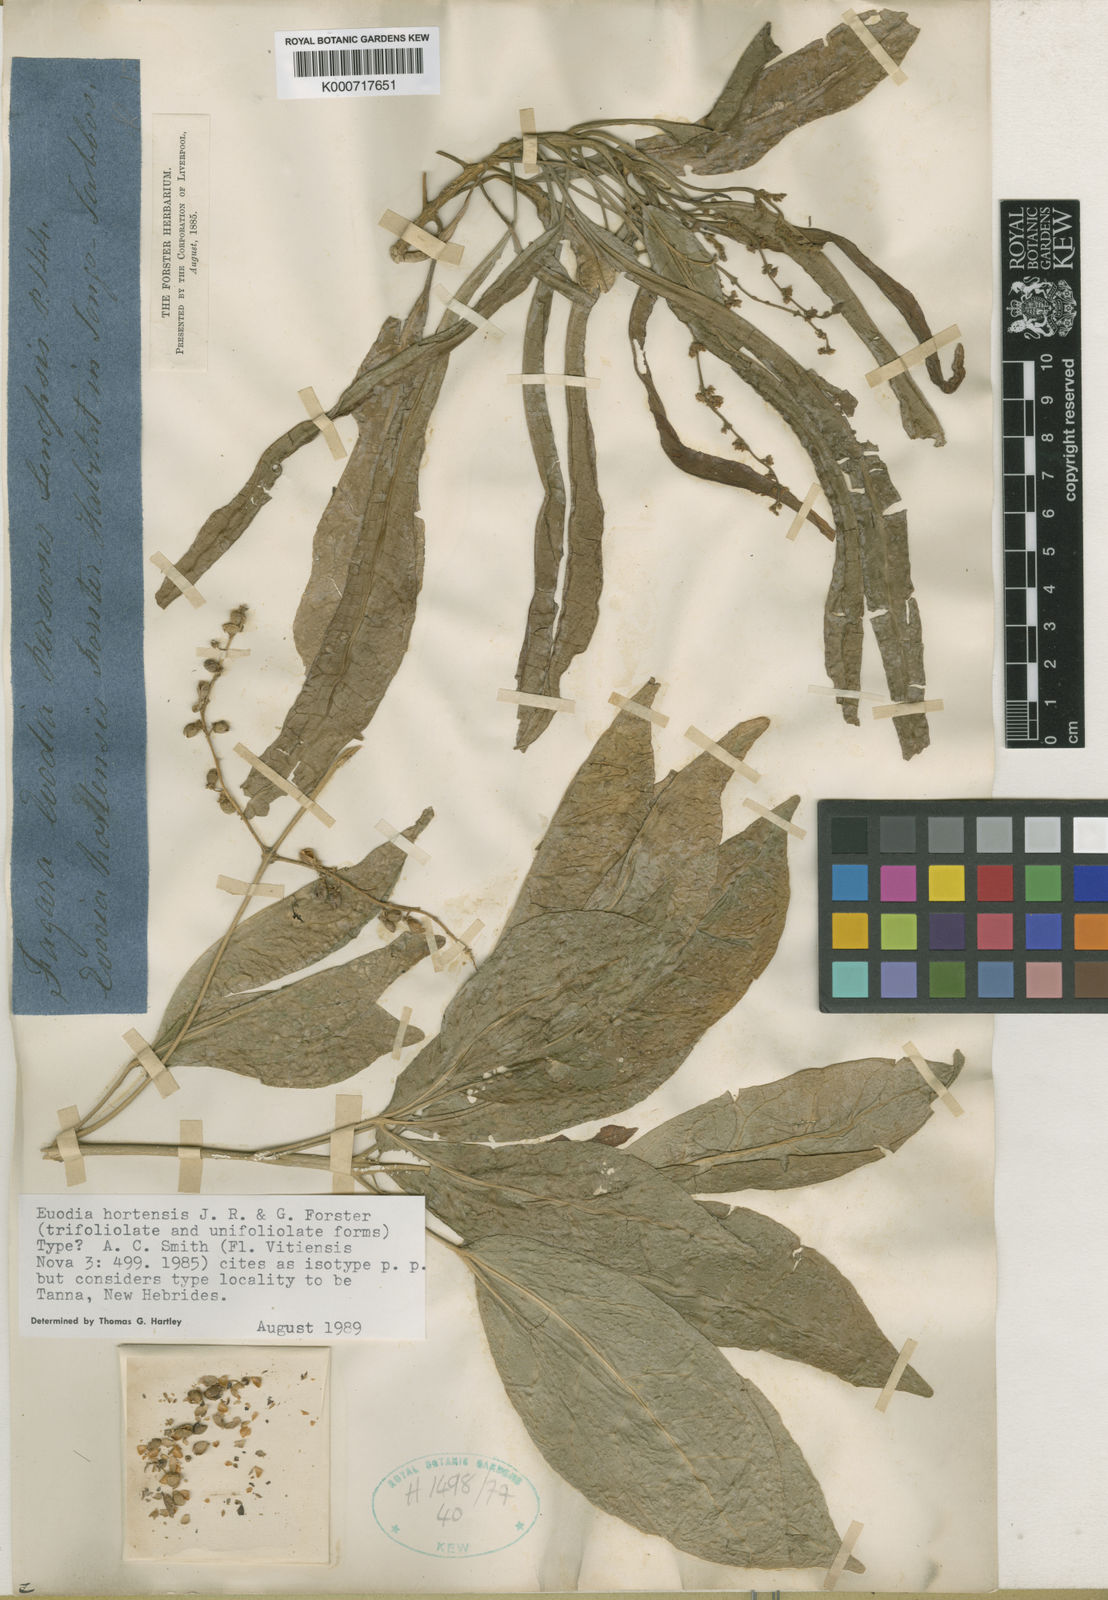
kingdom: Plantae
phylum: Tracheophyta
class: Magnoliopsida
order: Sapindales
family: Rutaceae
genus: Euodia
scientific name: Euodia hortensis
